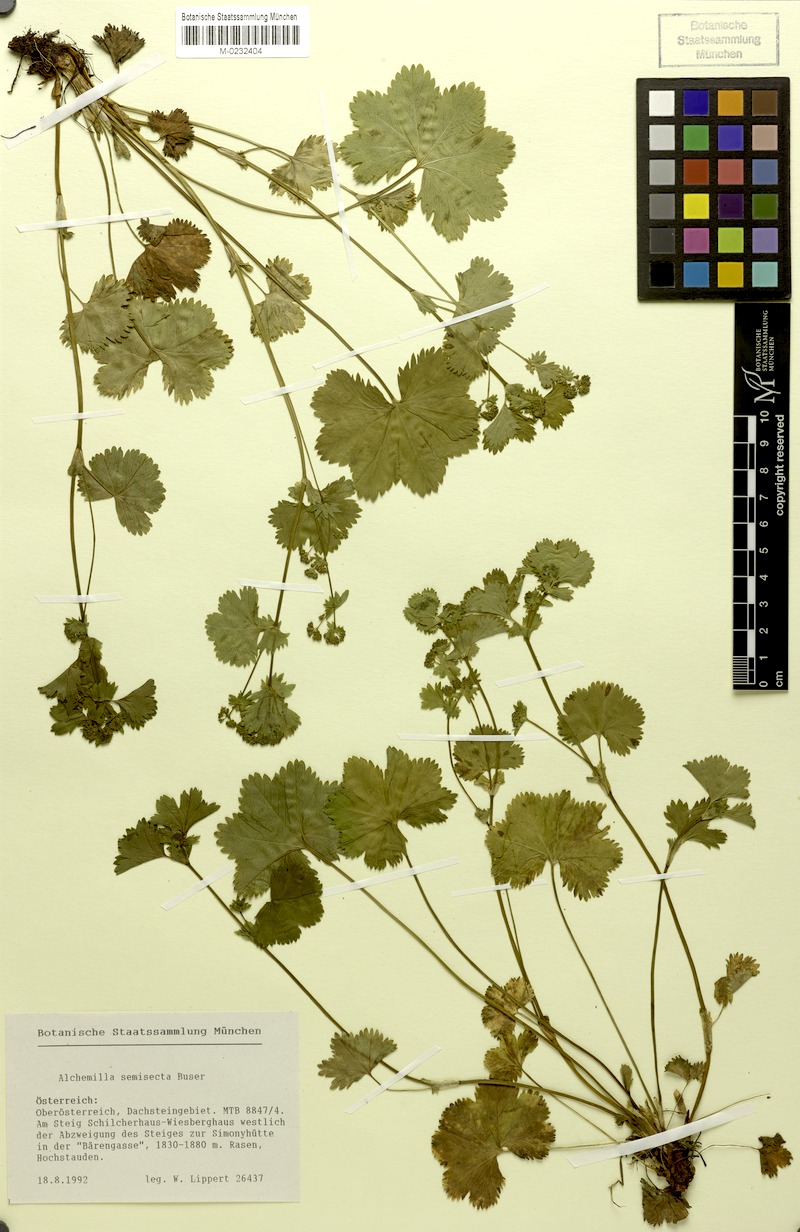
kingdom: Plantae
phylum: Tracheophyta
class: Magnoliopsida
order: Rosales
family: Rosaceae
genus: Alchemilla
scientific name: Alchemilla semisecta
